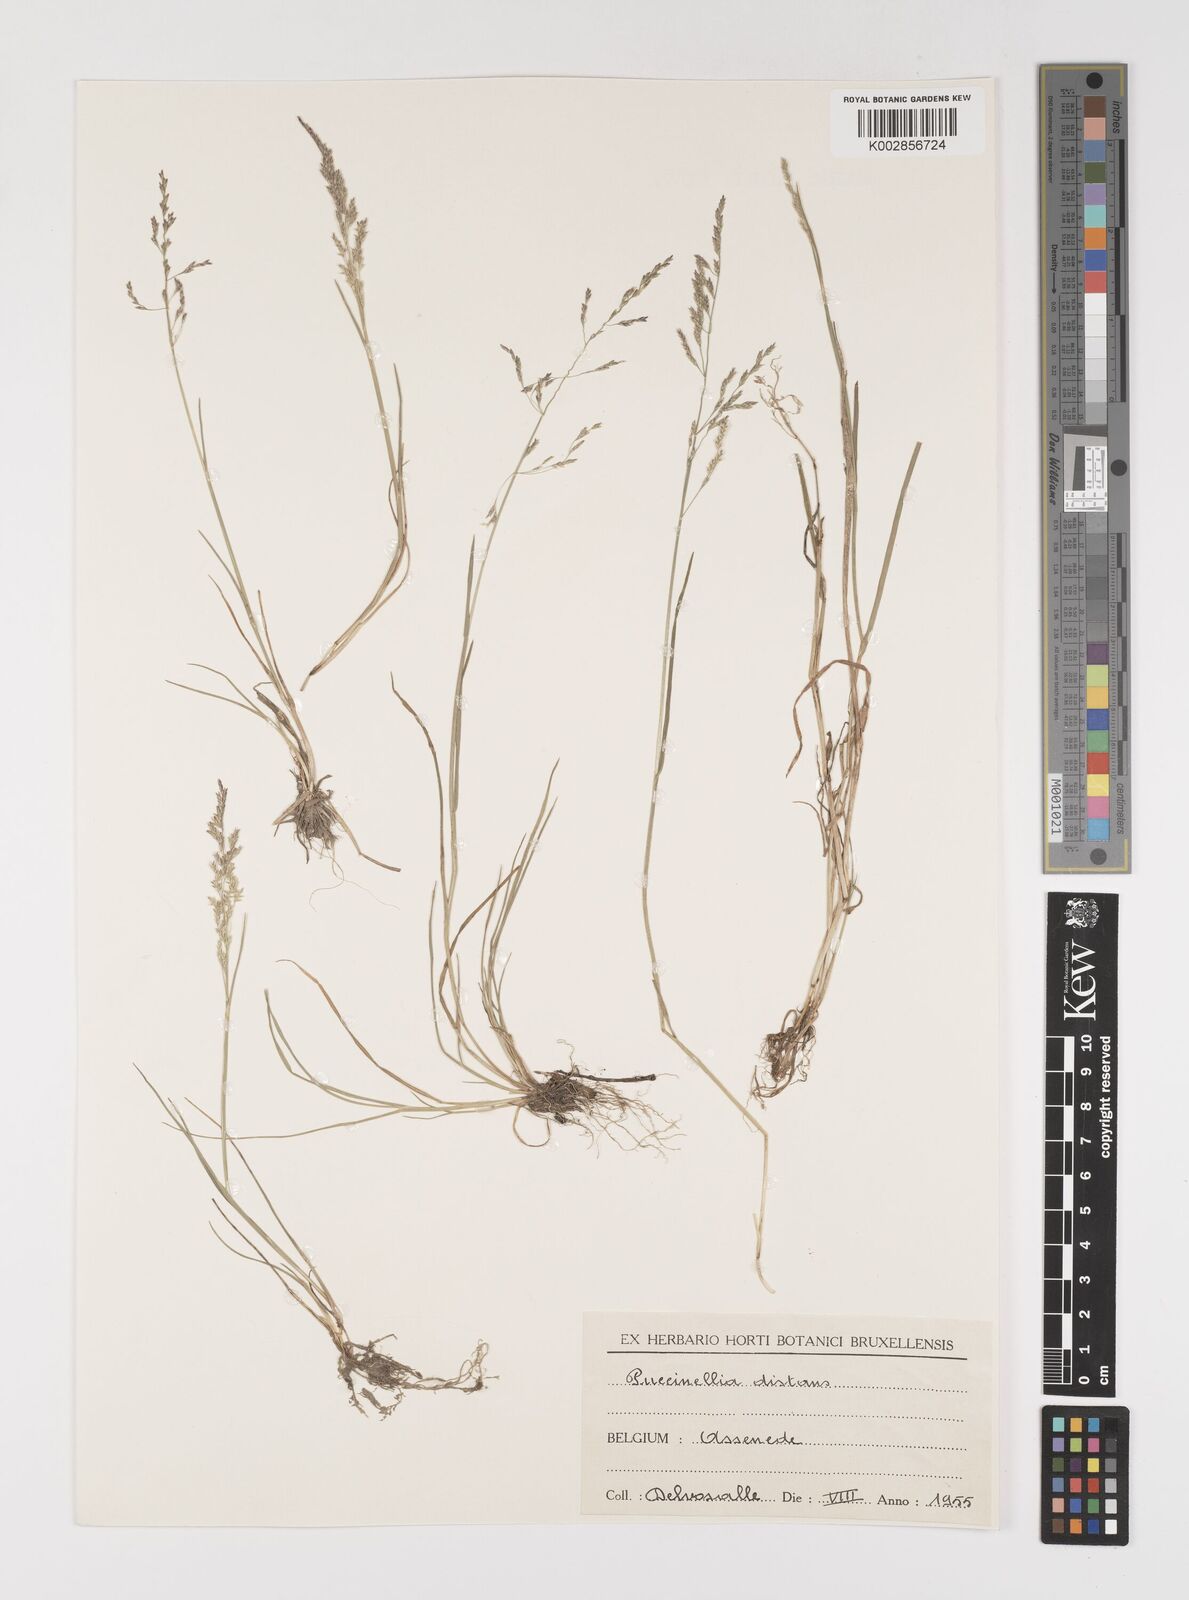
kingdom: Plantae
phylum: Tracheophyta
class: Liliopsida
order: Poales
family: Poaceae
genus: Puccinellia
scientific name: Puccinellia
